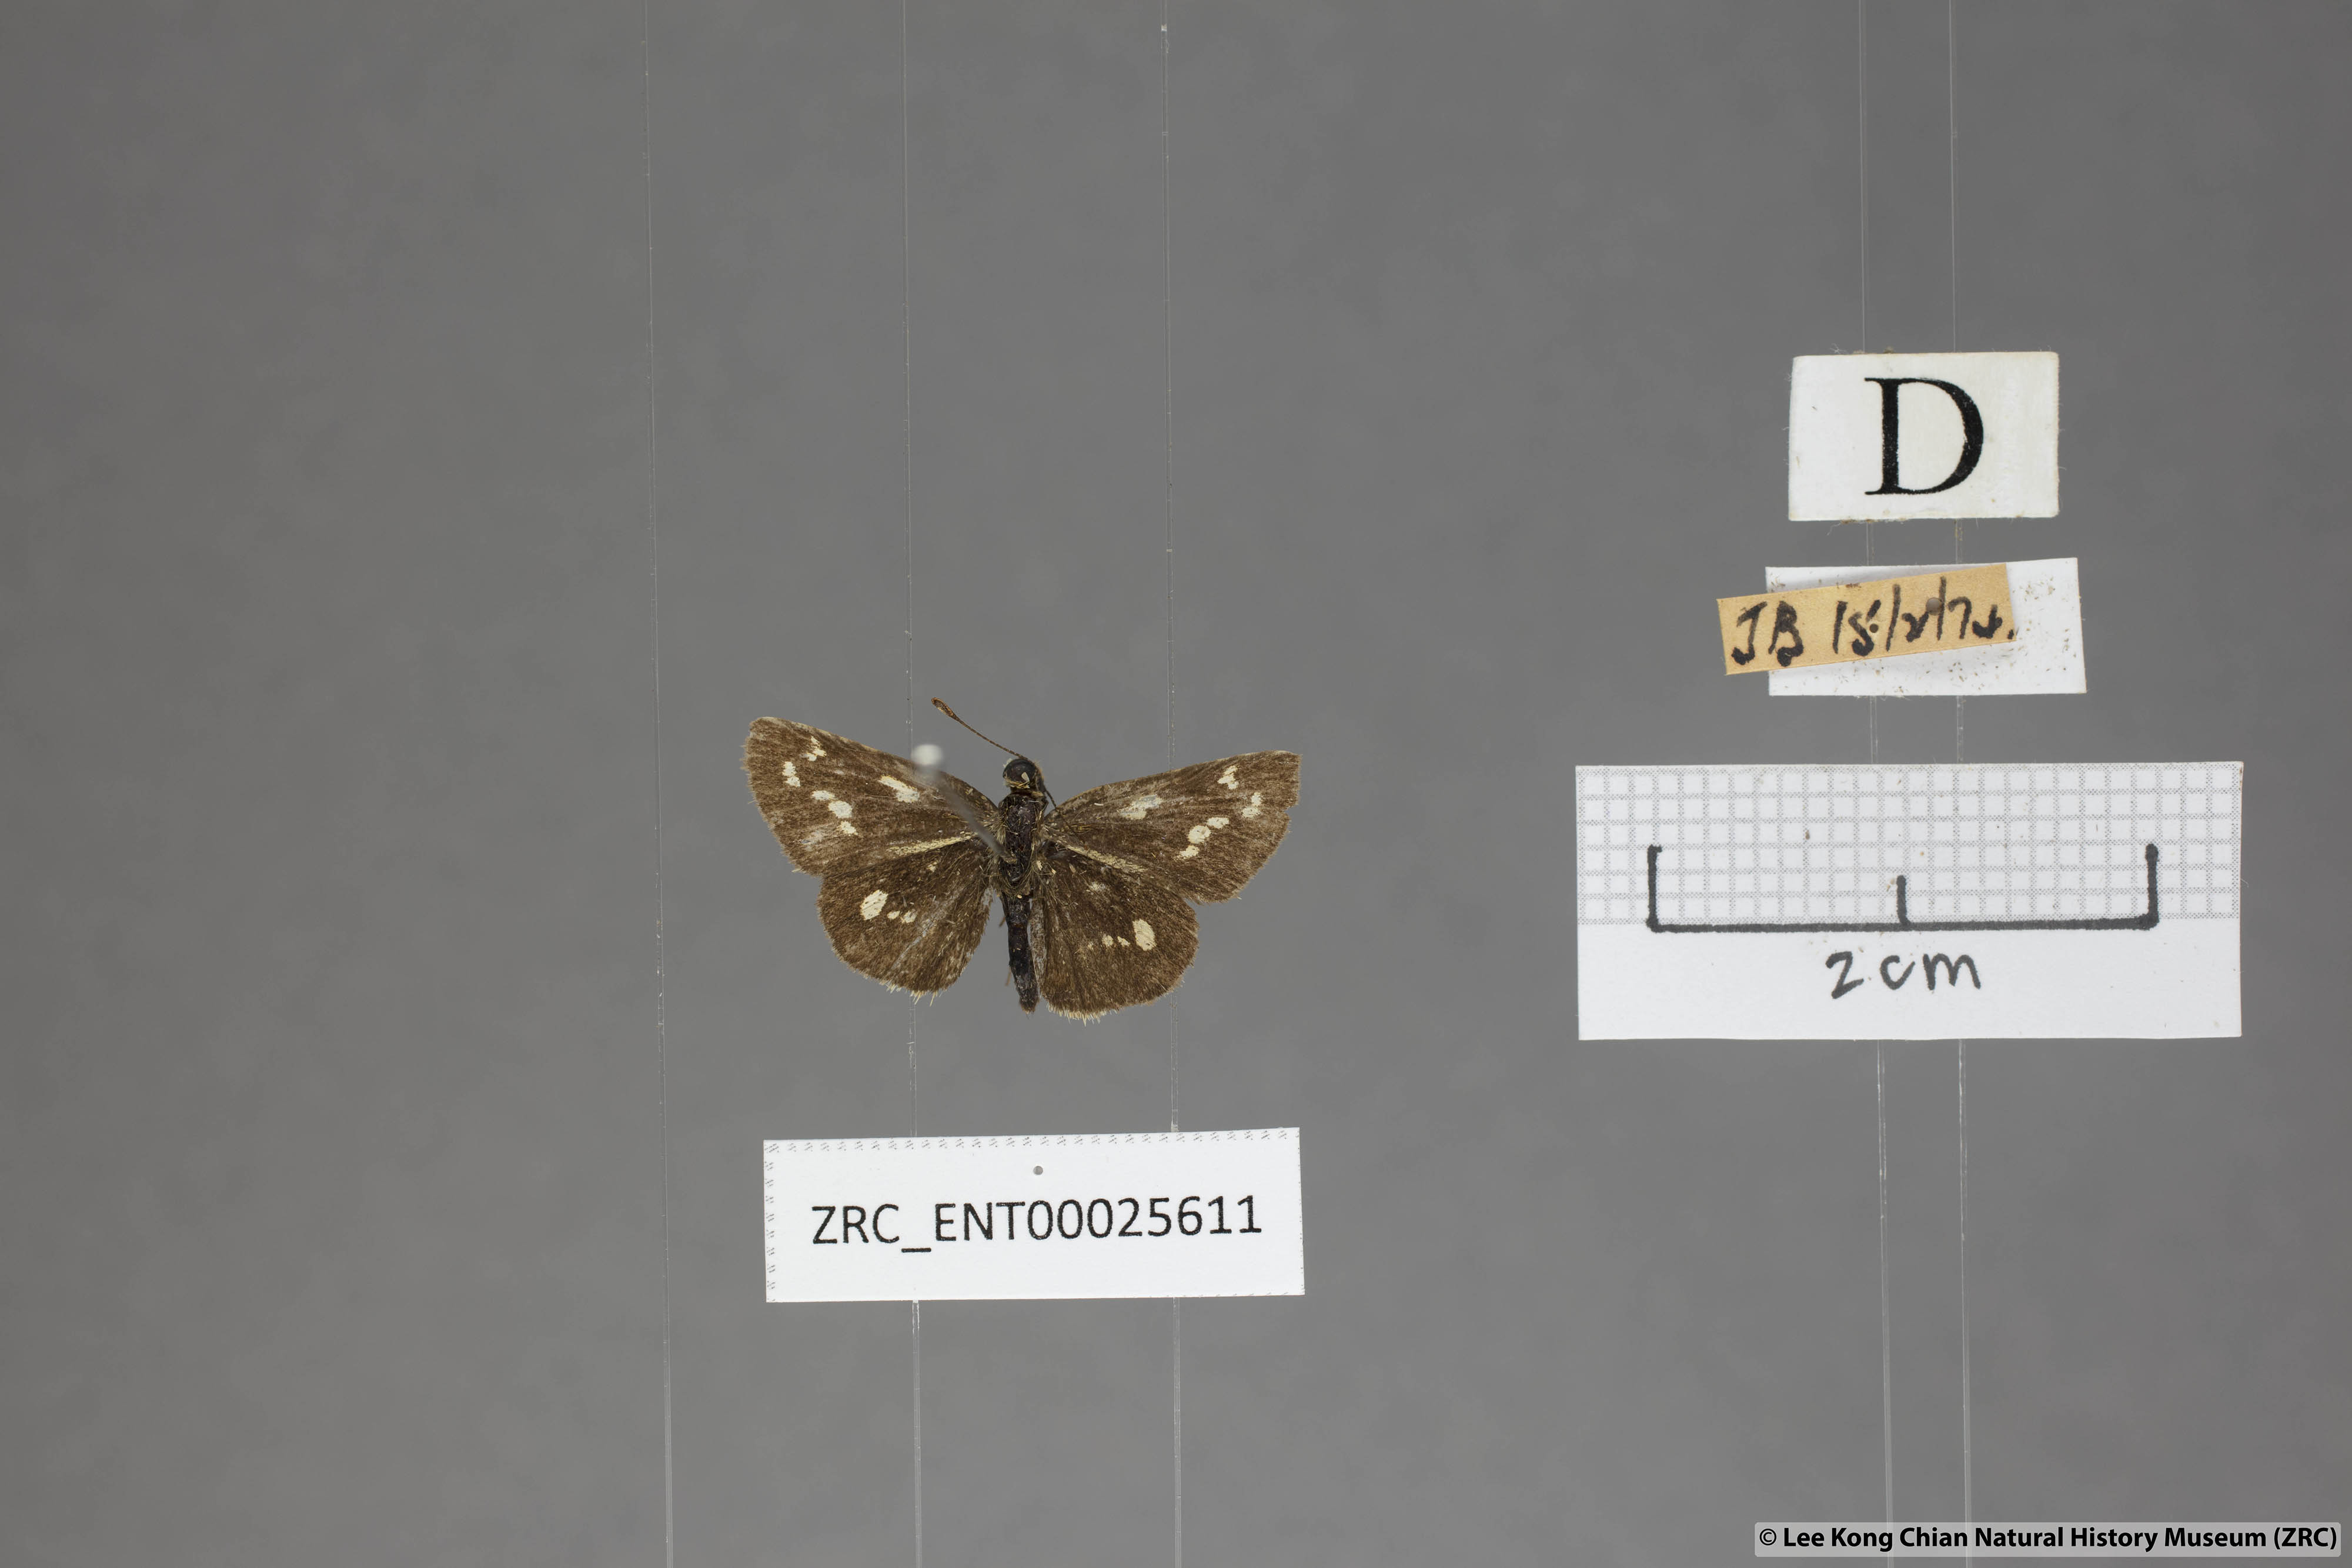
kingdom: Animalia
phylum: Arthropoda
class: Insecta
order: Lepidoptera
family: Hesperiidae
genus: Taractrocera
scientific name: Taractrocera ardonia
